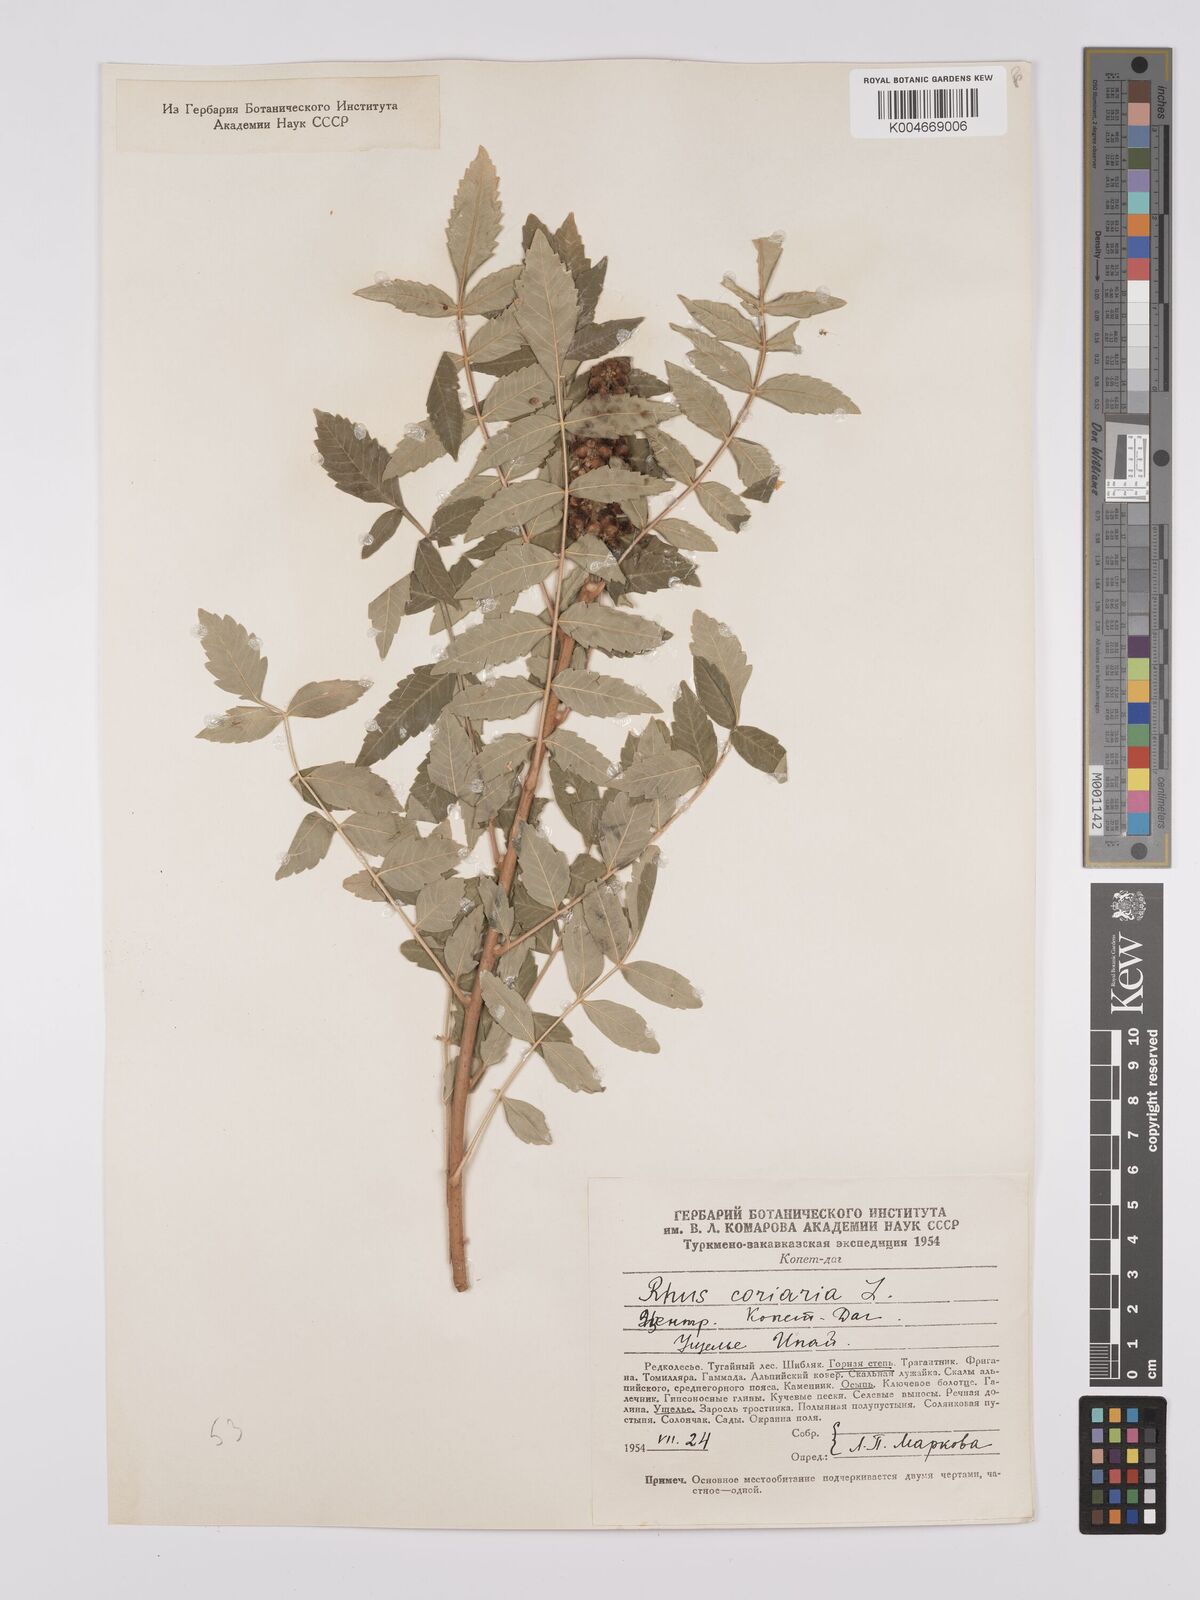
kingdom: Plantae
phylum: Tracheophyta
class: Magnoliopsida
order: Sapindales
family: Anacardiaceae
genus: Rhus
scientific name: Rhus coriaria
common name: Tanner's sumach
